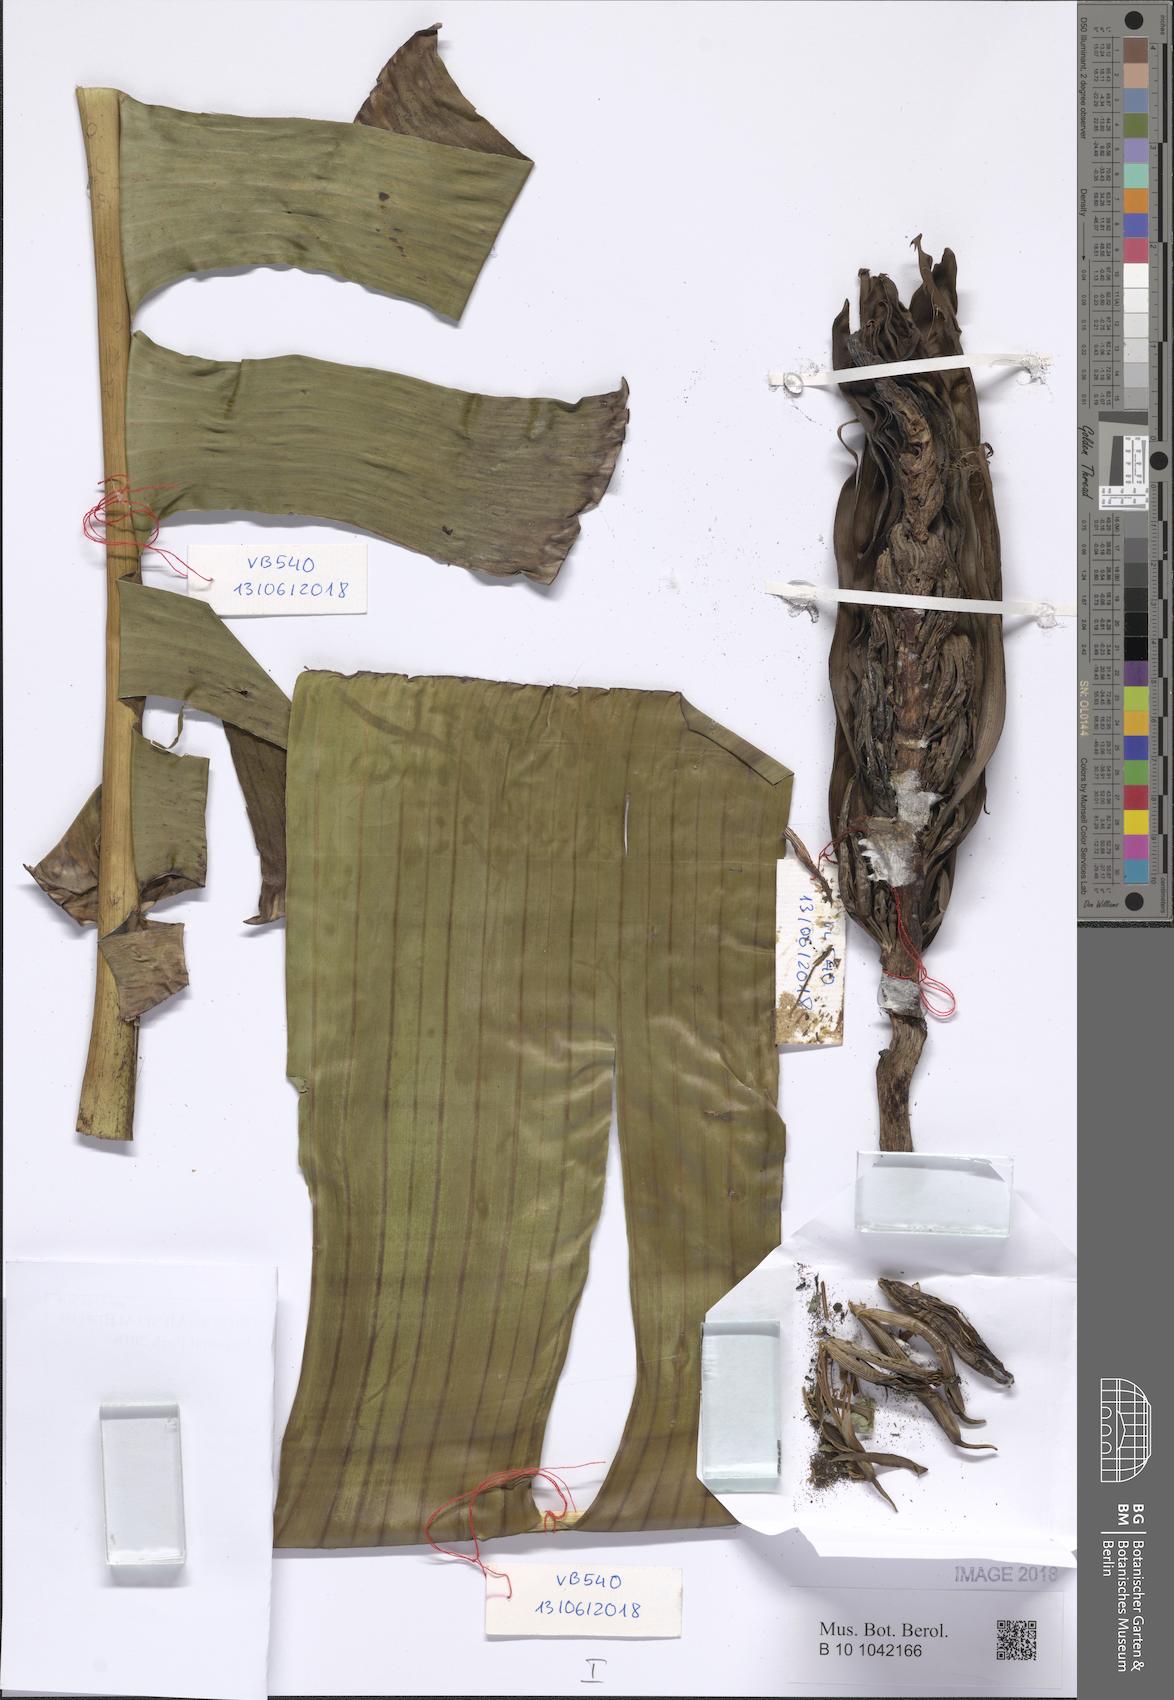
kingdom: Plantae
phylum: Tracheophyta
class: Liliopsida
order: Zingiberales
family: Musaceae
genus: Musa
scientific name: Musa acuminata
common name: Edible banana
